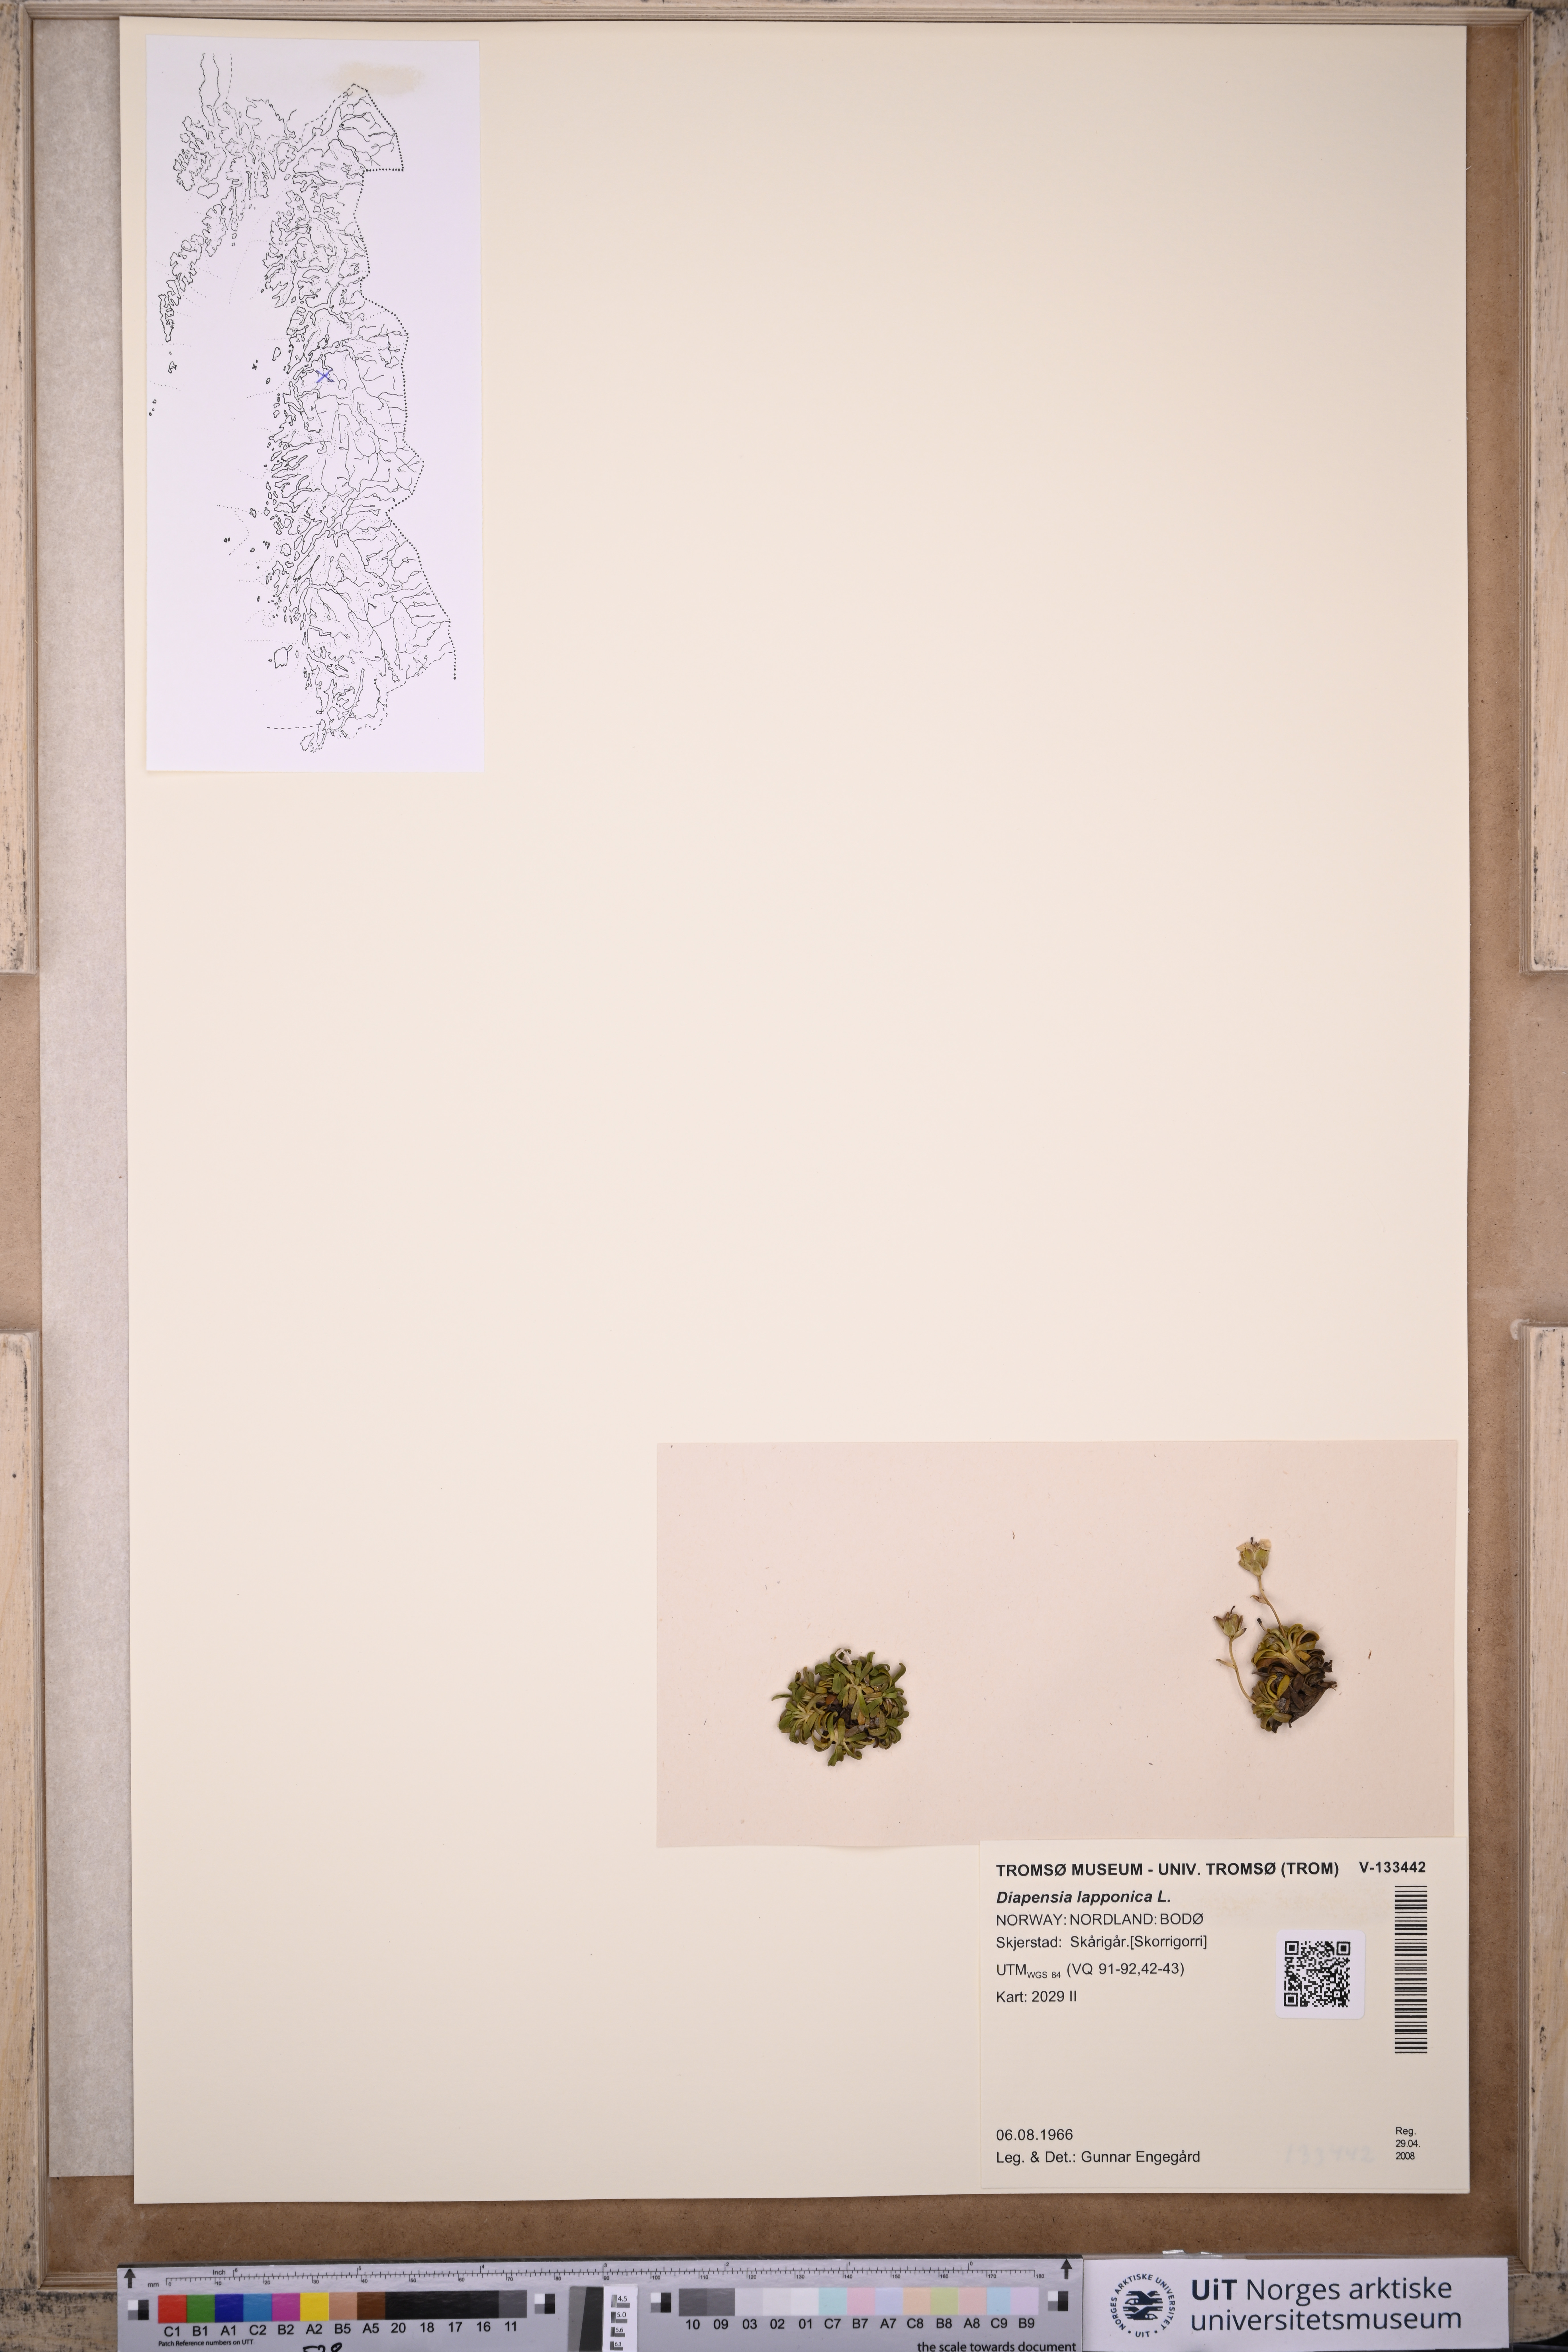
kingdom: Plantae
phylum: Tracheophyta
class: Magnoliopsida
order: Ericales
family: Diapensiaceae
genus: Diapensia
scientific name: Diapensia lapponica
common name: Diapensia
